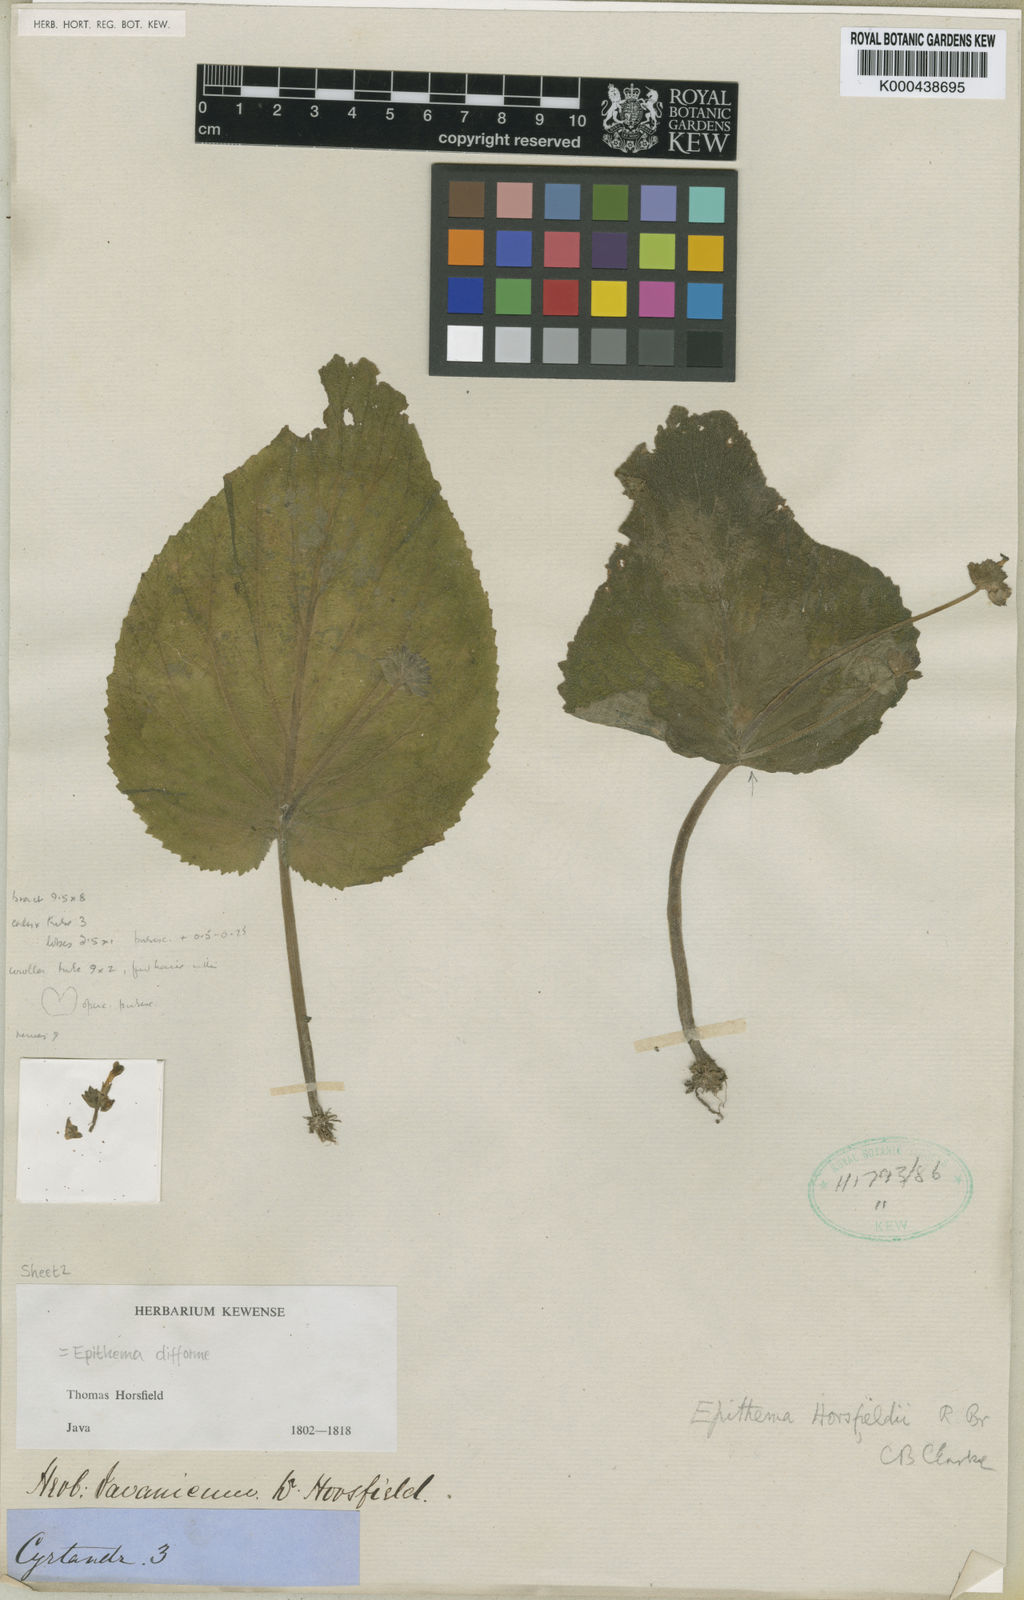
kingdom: Plantae
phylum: Tracheophyta
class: Magnoliopsida
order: Lamiales
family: Gesneriaceae
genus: Epithema
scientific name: Epithema horsfieldii
